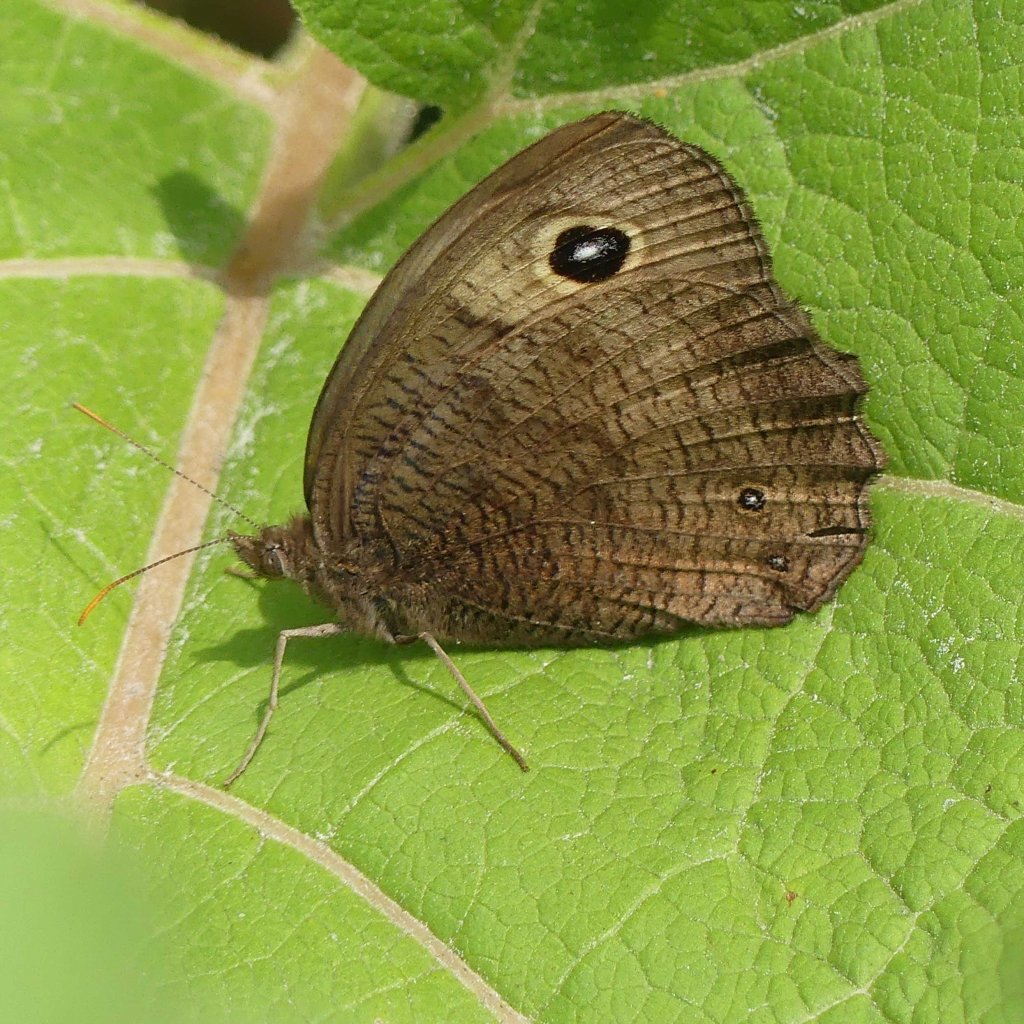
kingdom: Animalia
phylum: Arthropoda
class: Insecta
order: Lepidoptera
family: Nymphalidae
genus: Cercyonis
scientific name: Cercyonis pegala
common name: Common Wood-Nymph
